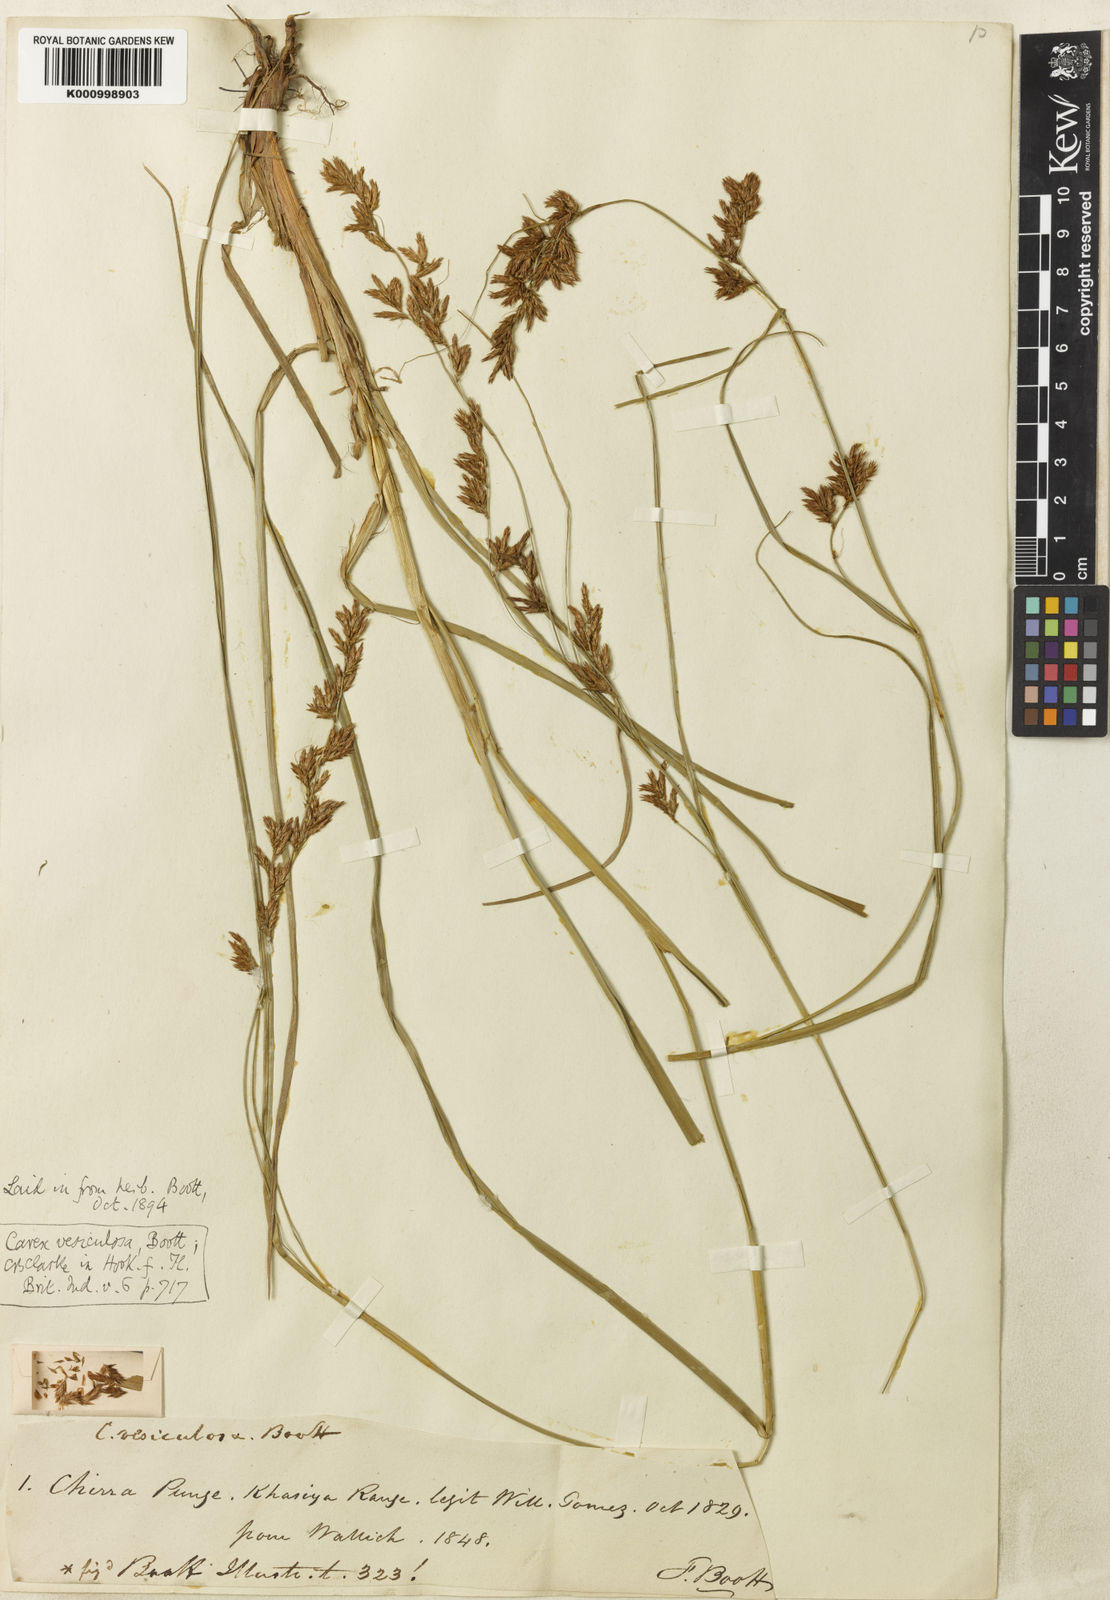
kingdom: Plantae
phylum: Tracheophyta
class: Liliopsida
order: Poales
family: Cyperaceae
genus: Carex
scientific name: Carex vesiculosa
